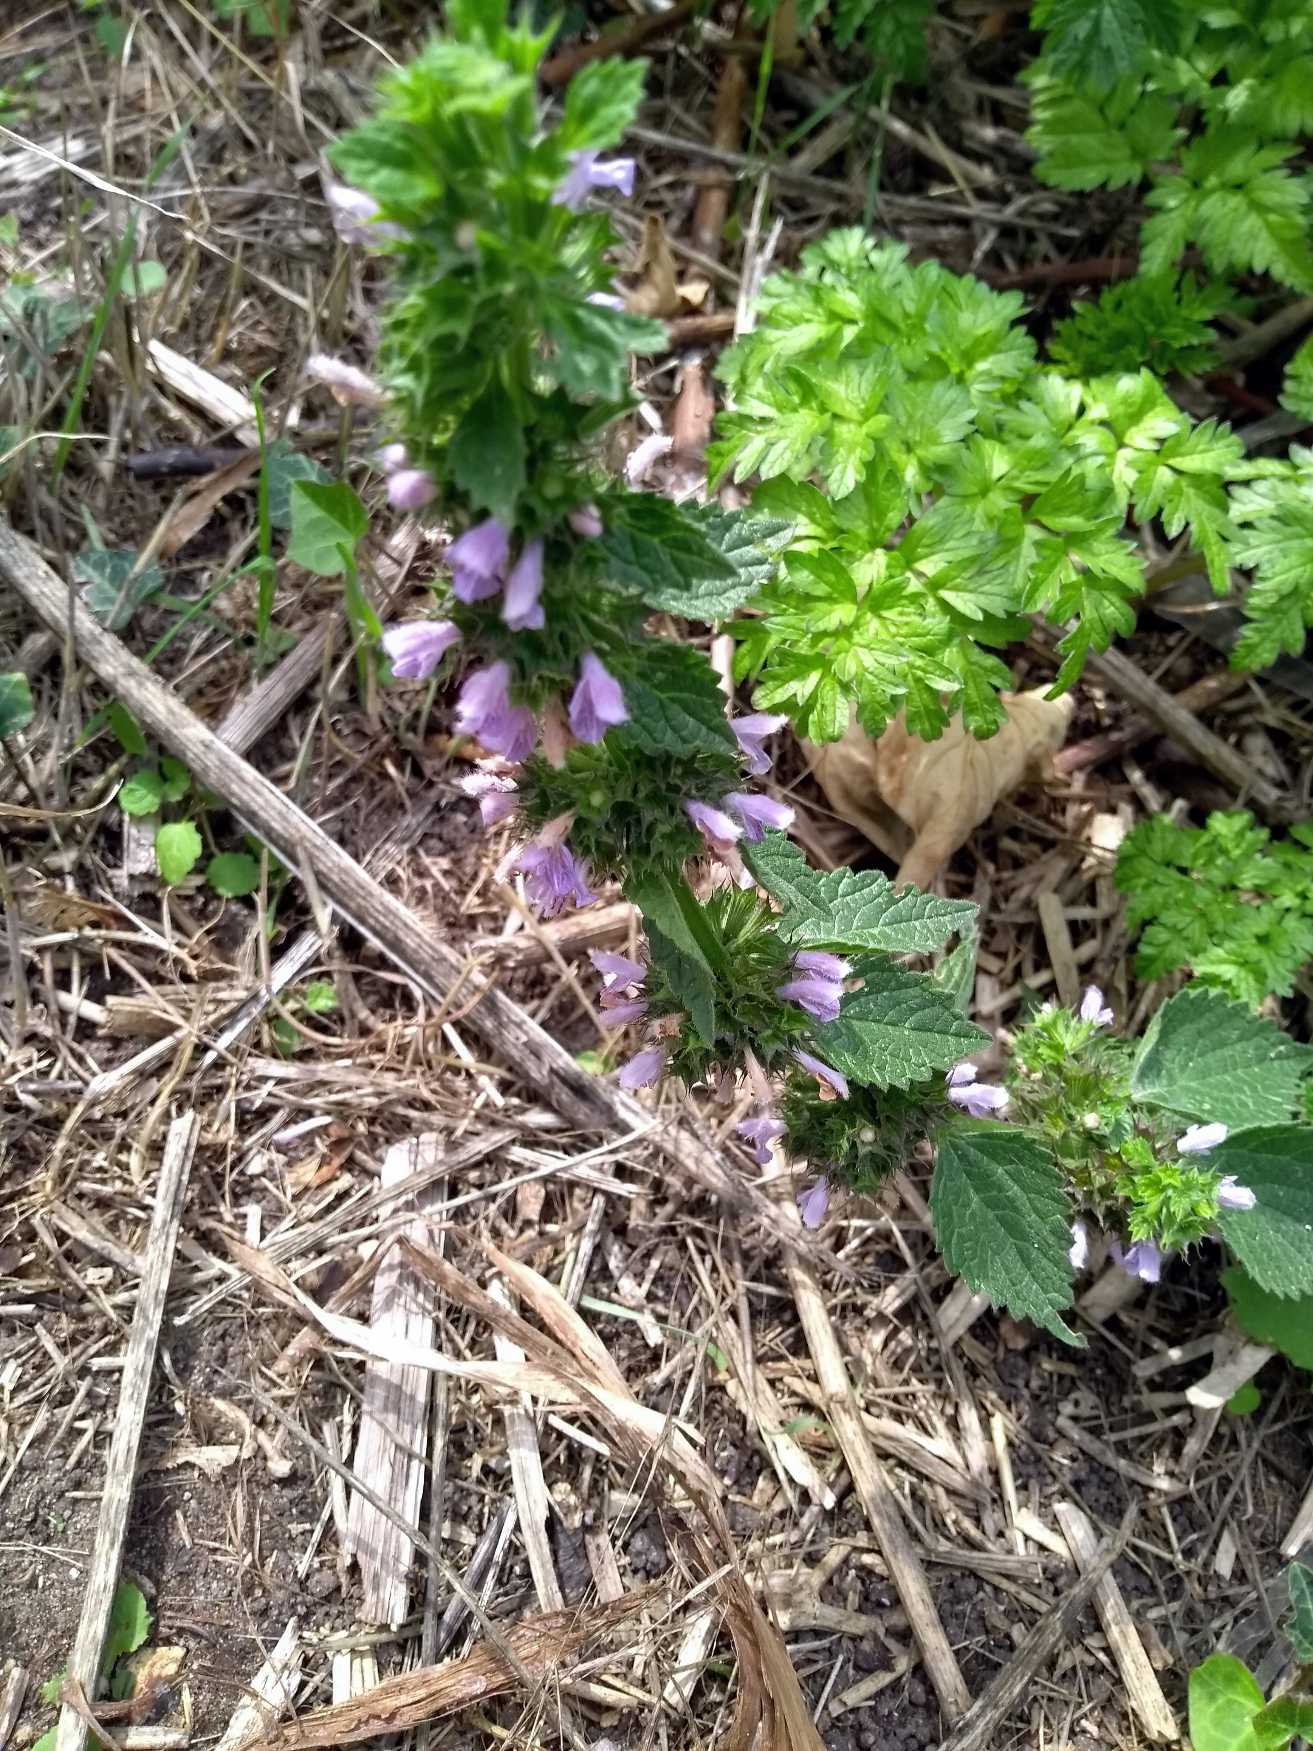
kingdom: Plantae
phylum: Tracheophyta
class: Magnoliopsida
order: Lamiales
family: Lamiaceae
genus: Ballota
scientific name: Ballota nigra
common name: Tandbæger
